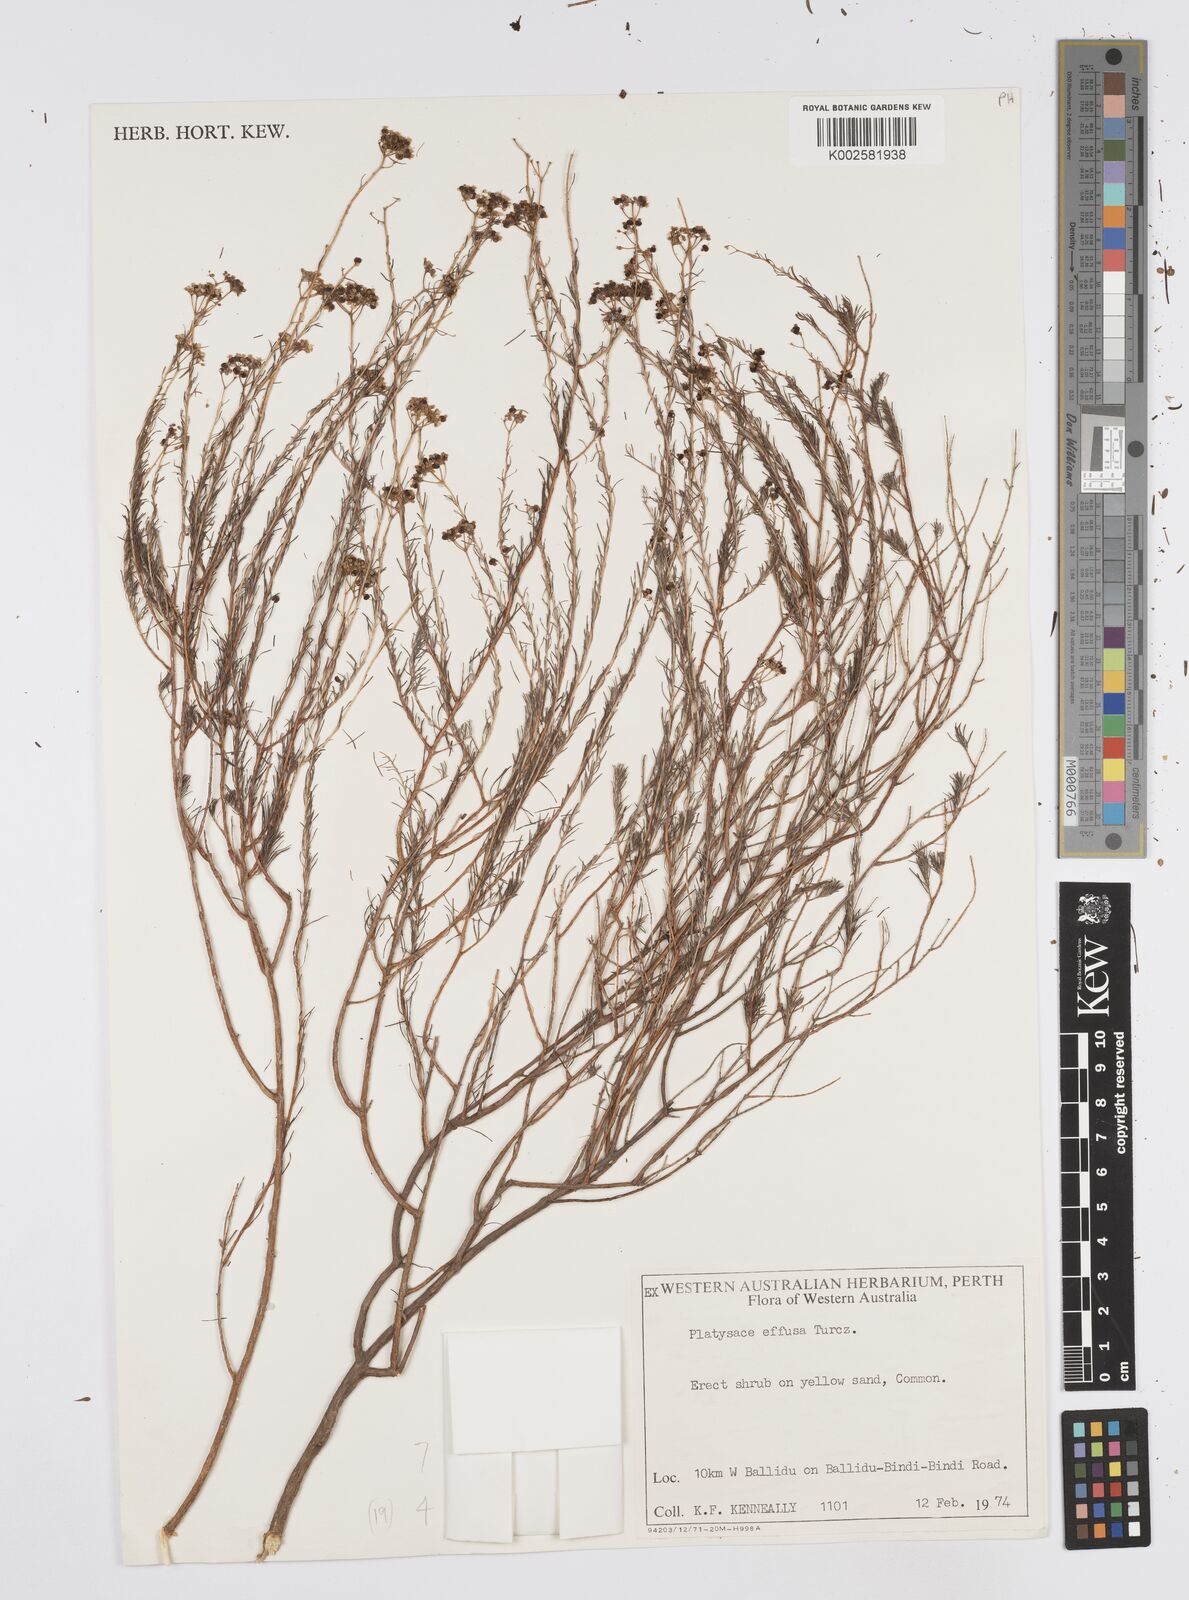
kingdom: Plantae
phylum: Tracheophyta
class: Magnoliopsida
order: Apiales
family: Apiaceae
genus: Platysace
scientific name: Platysace effusa
